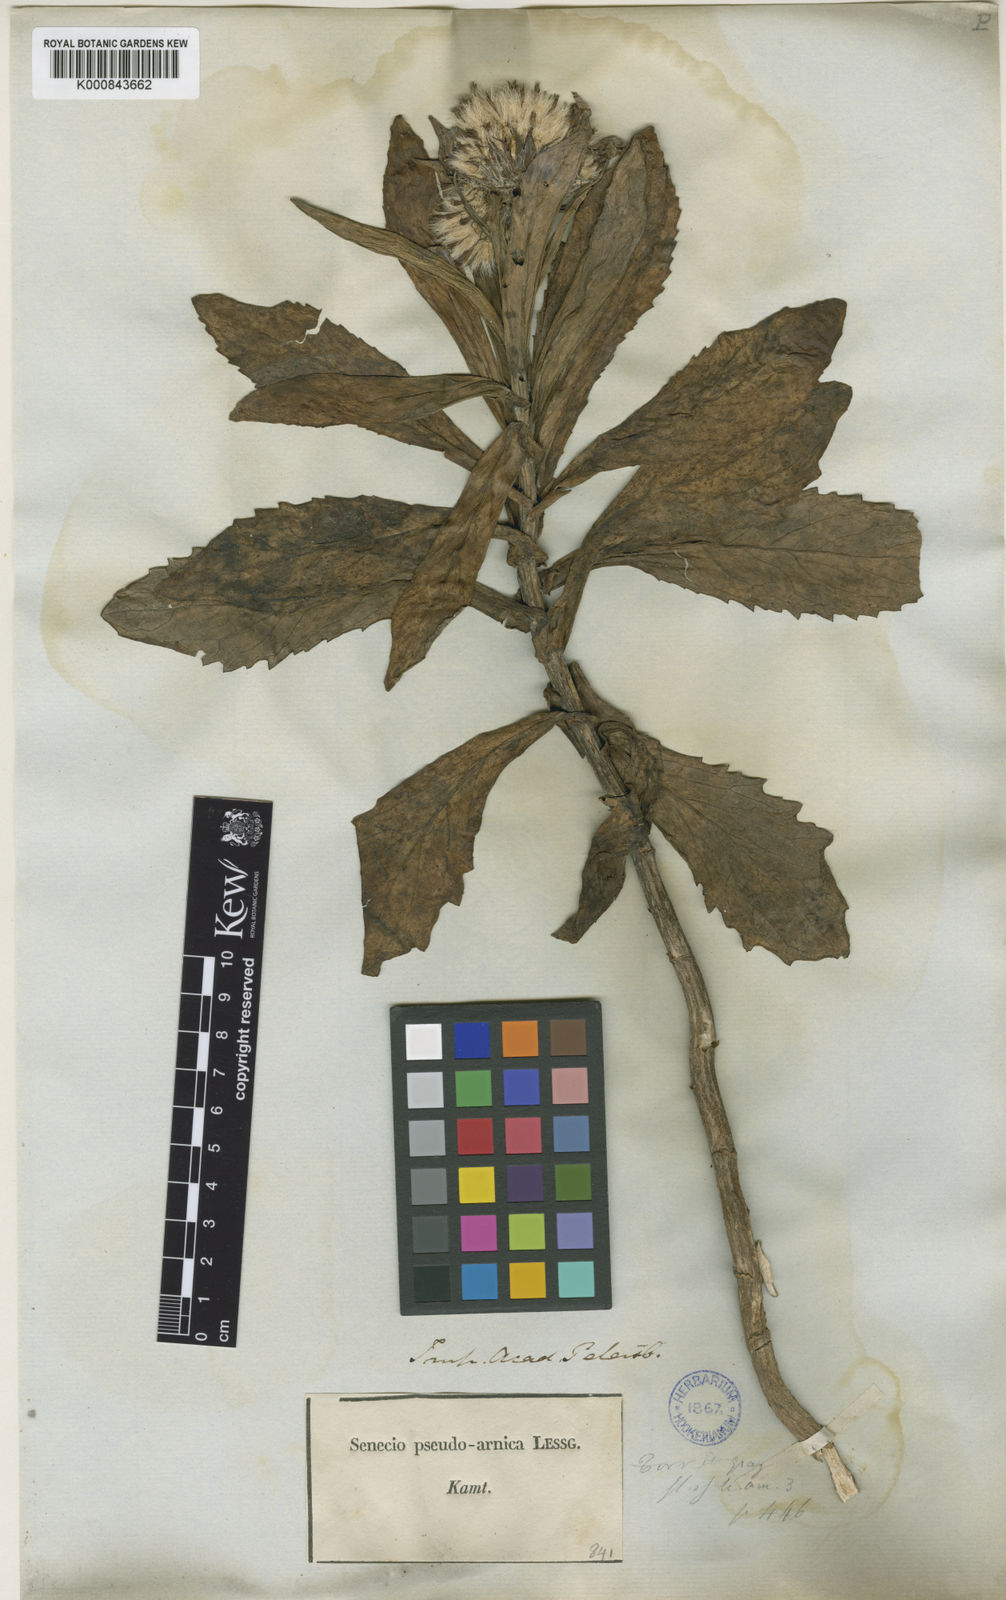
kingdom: Plantae
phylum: Tracheophyta
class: Magnoliopsida
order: Asterales
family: Asteraceae
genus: Jacobaea
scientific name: Jacobaea pseudoarnica
